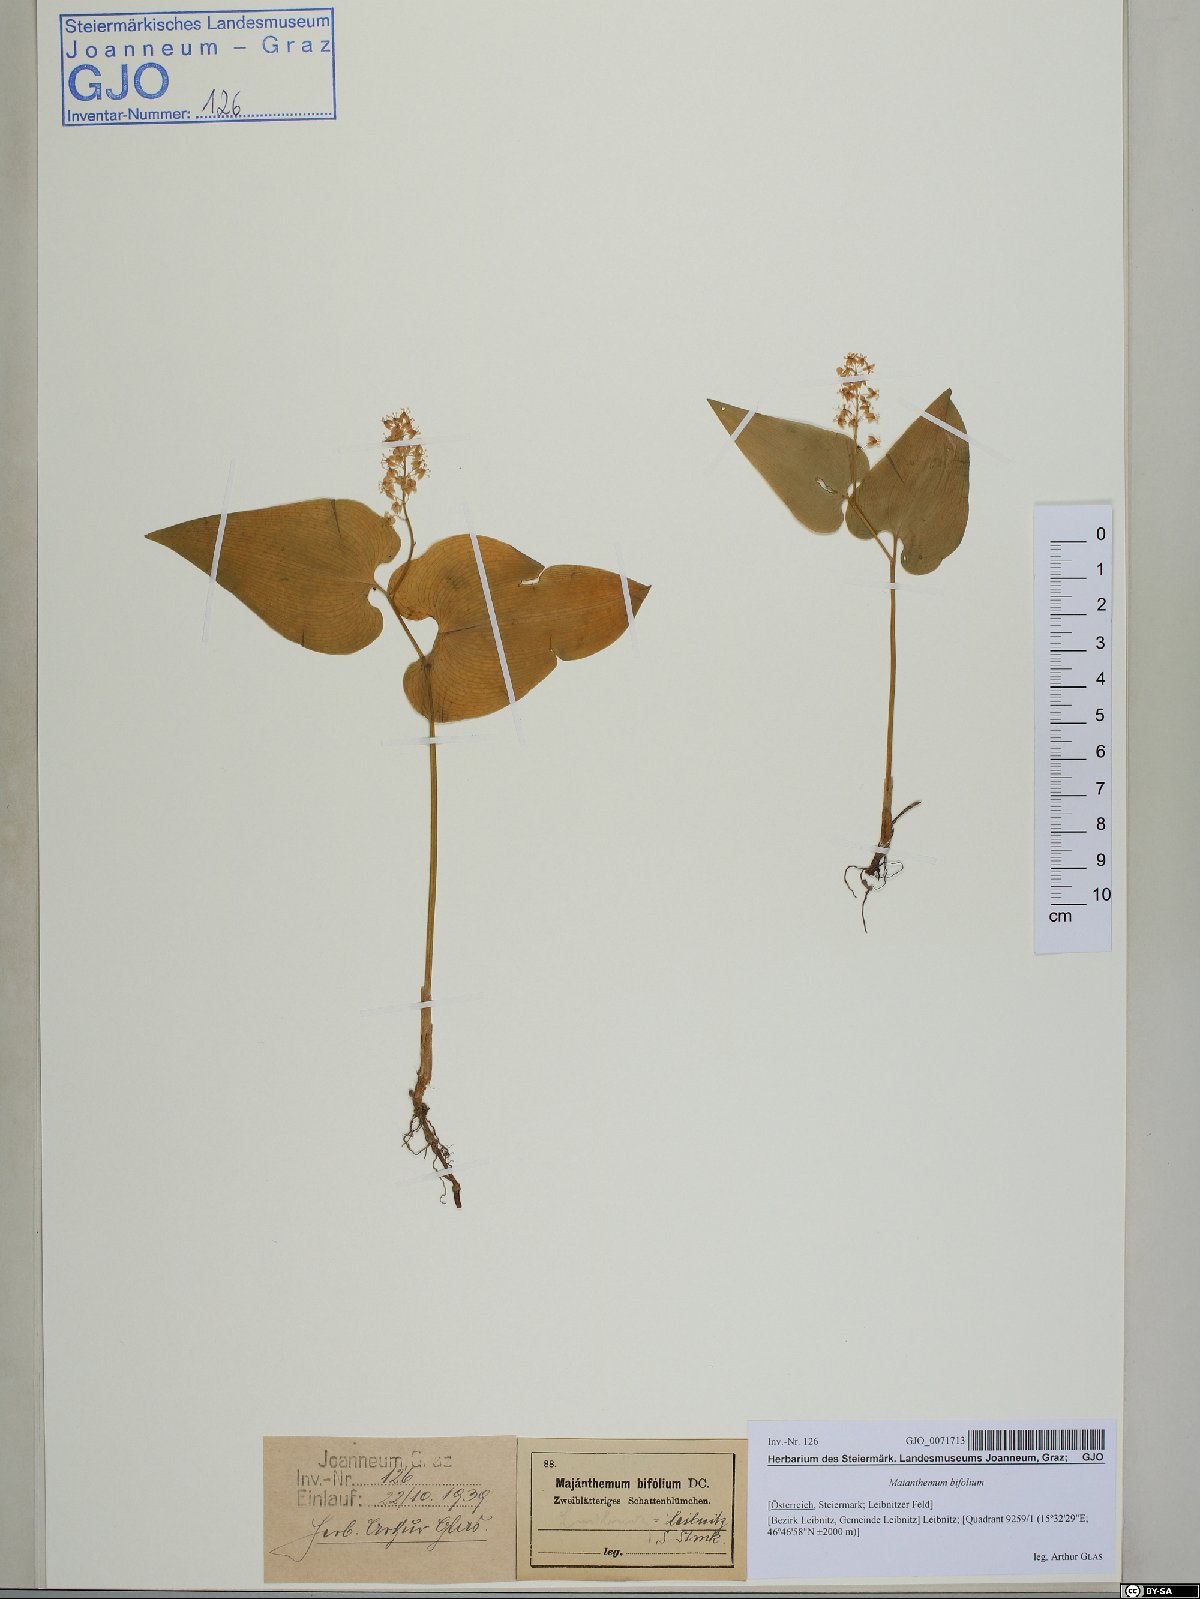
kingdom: Plantae
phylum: Tracheophyta
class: Liliopsida
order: Asparagales
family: Asparagaceae
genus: Maianthemum
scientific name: Maianthemum bifolium
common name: May lily
